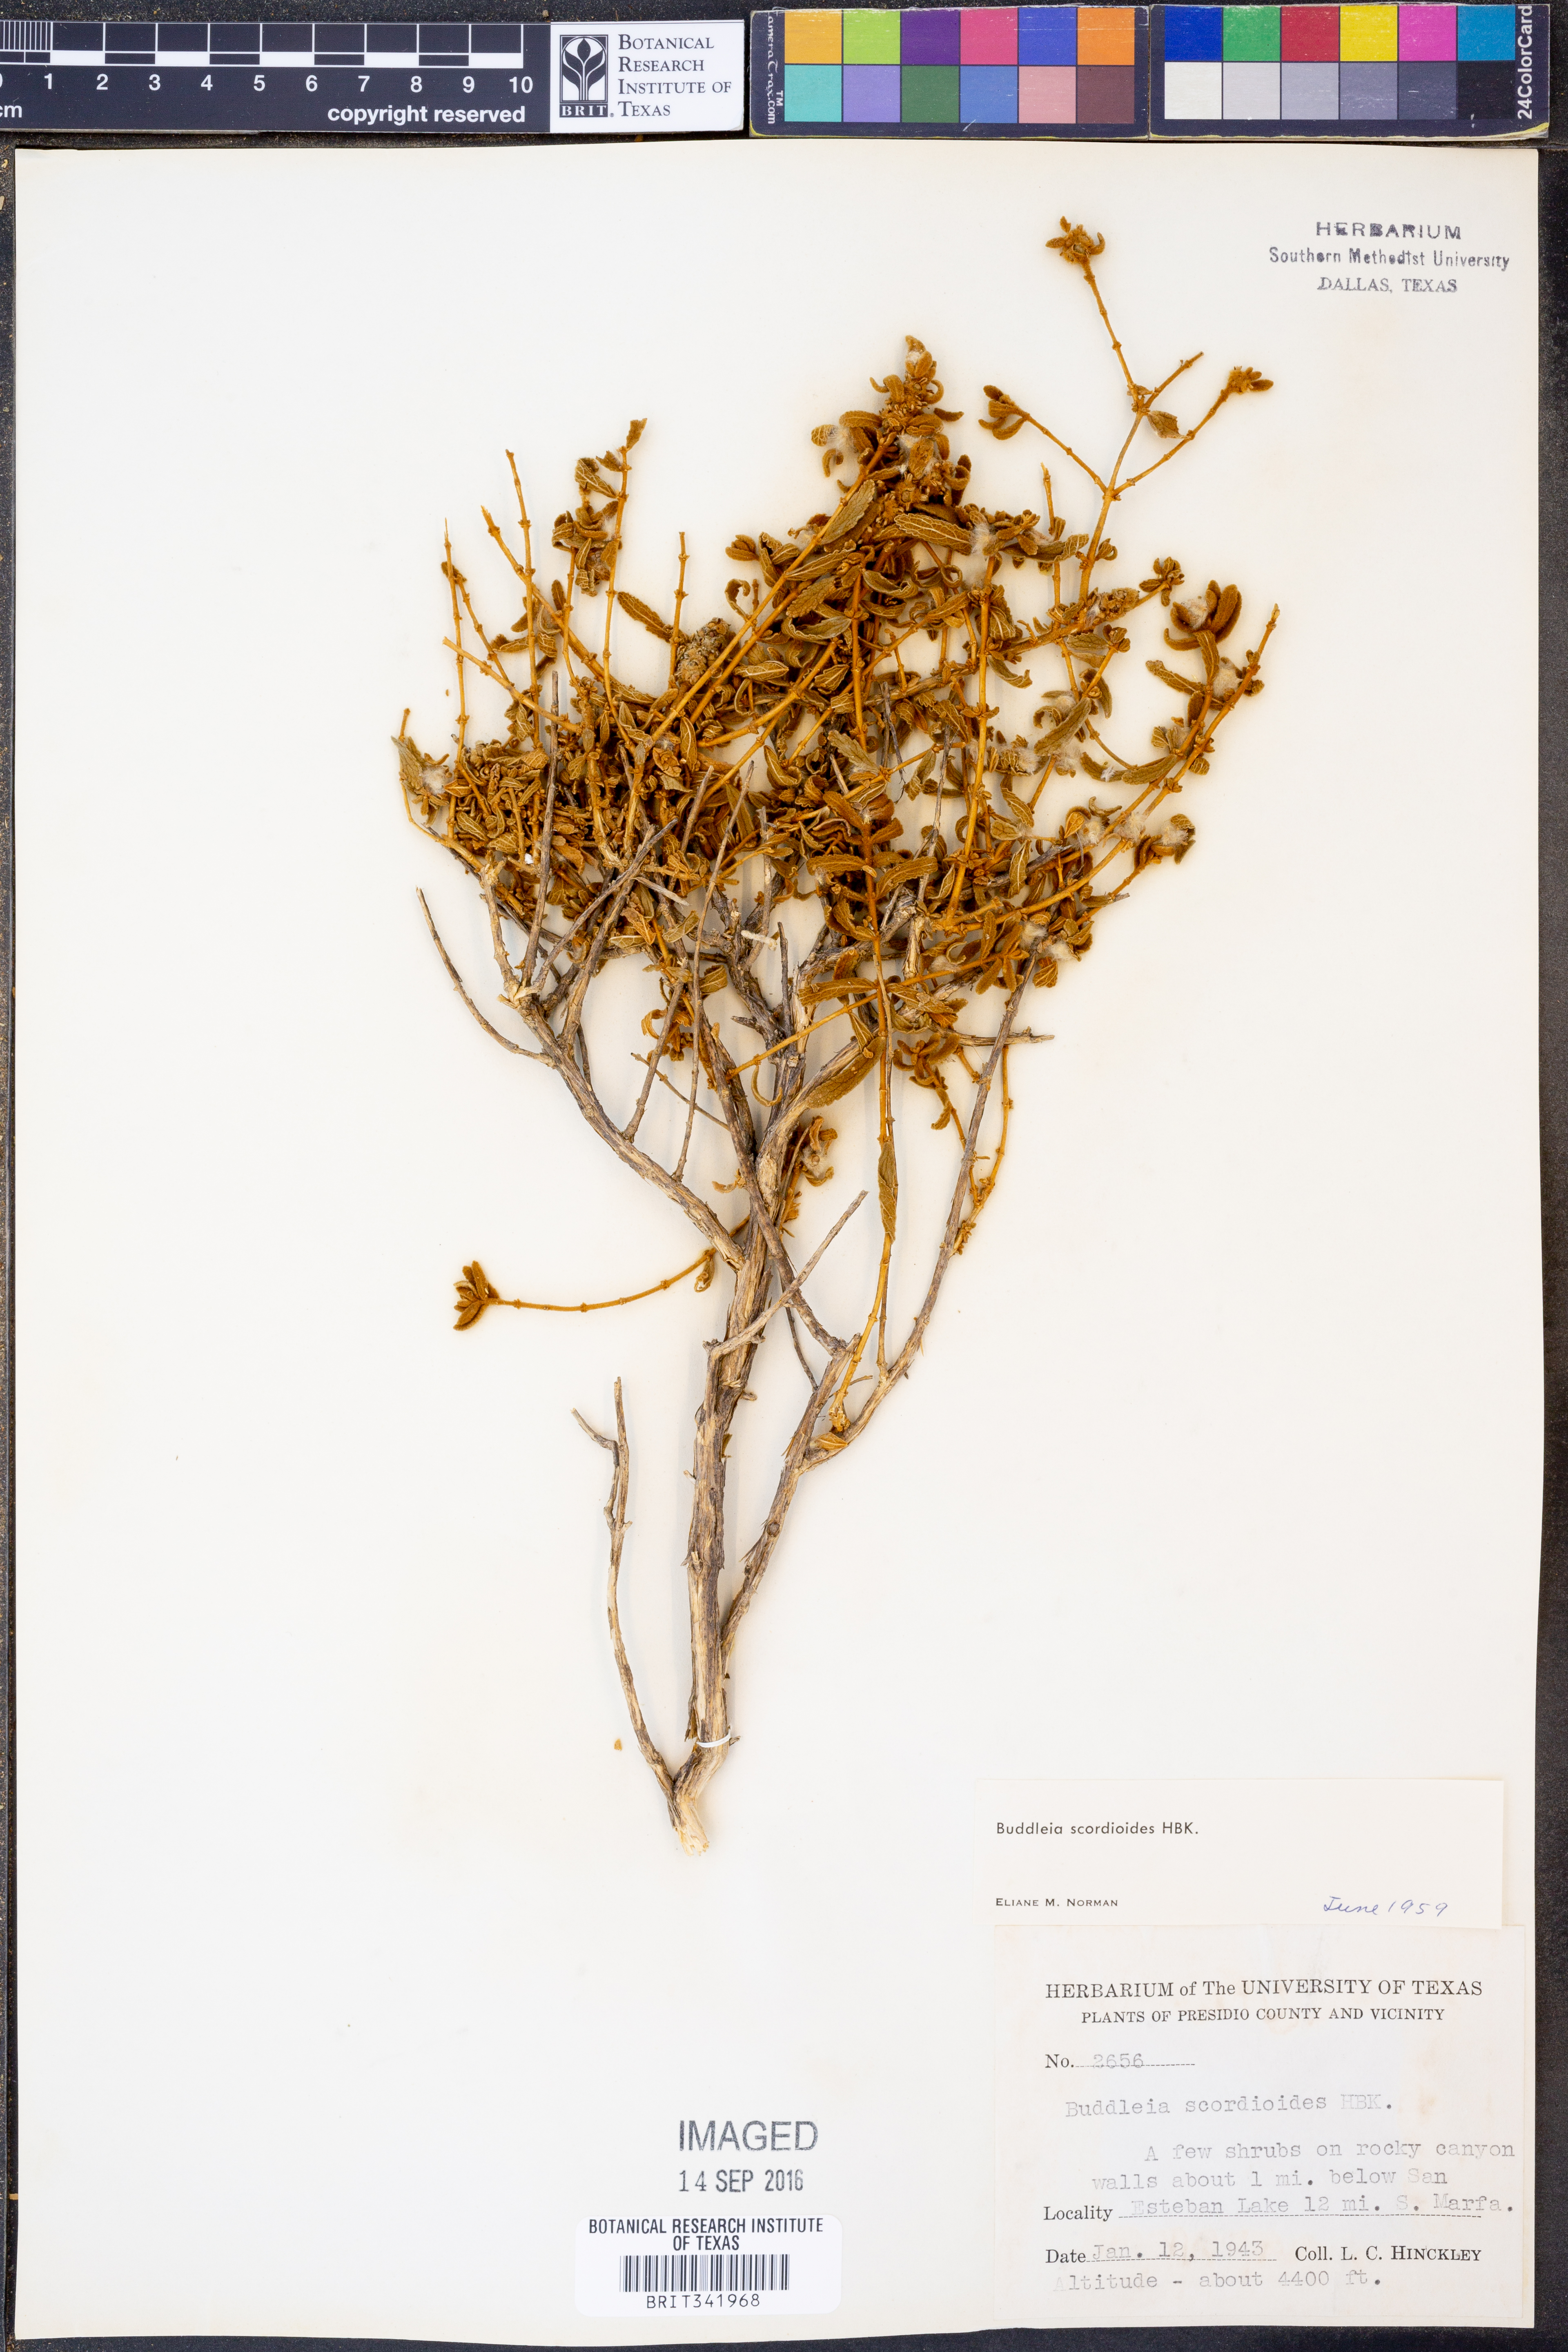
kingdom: Plantae
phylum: Tracheophyta
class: Magnoliopsida
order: Lamiales
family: Scrophulariaceae
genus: Buddleja
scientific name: Buddleja scordioides
